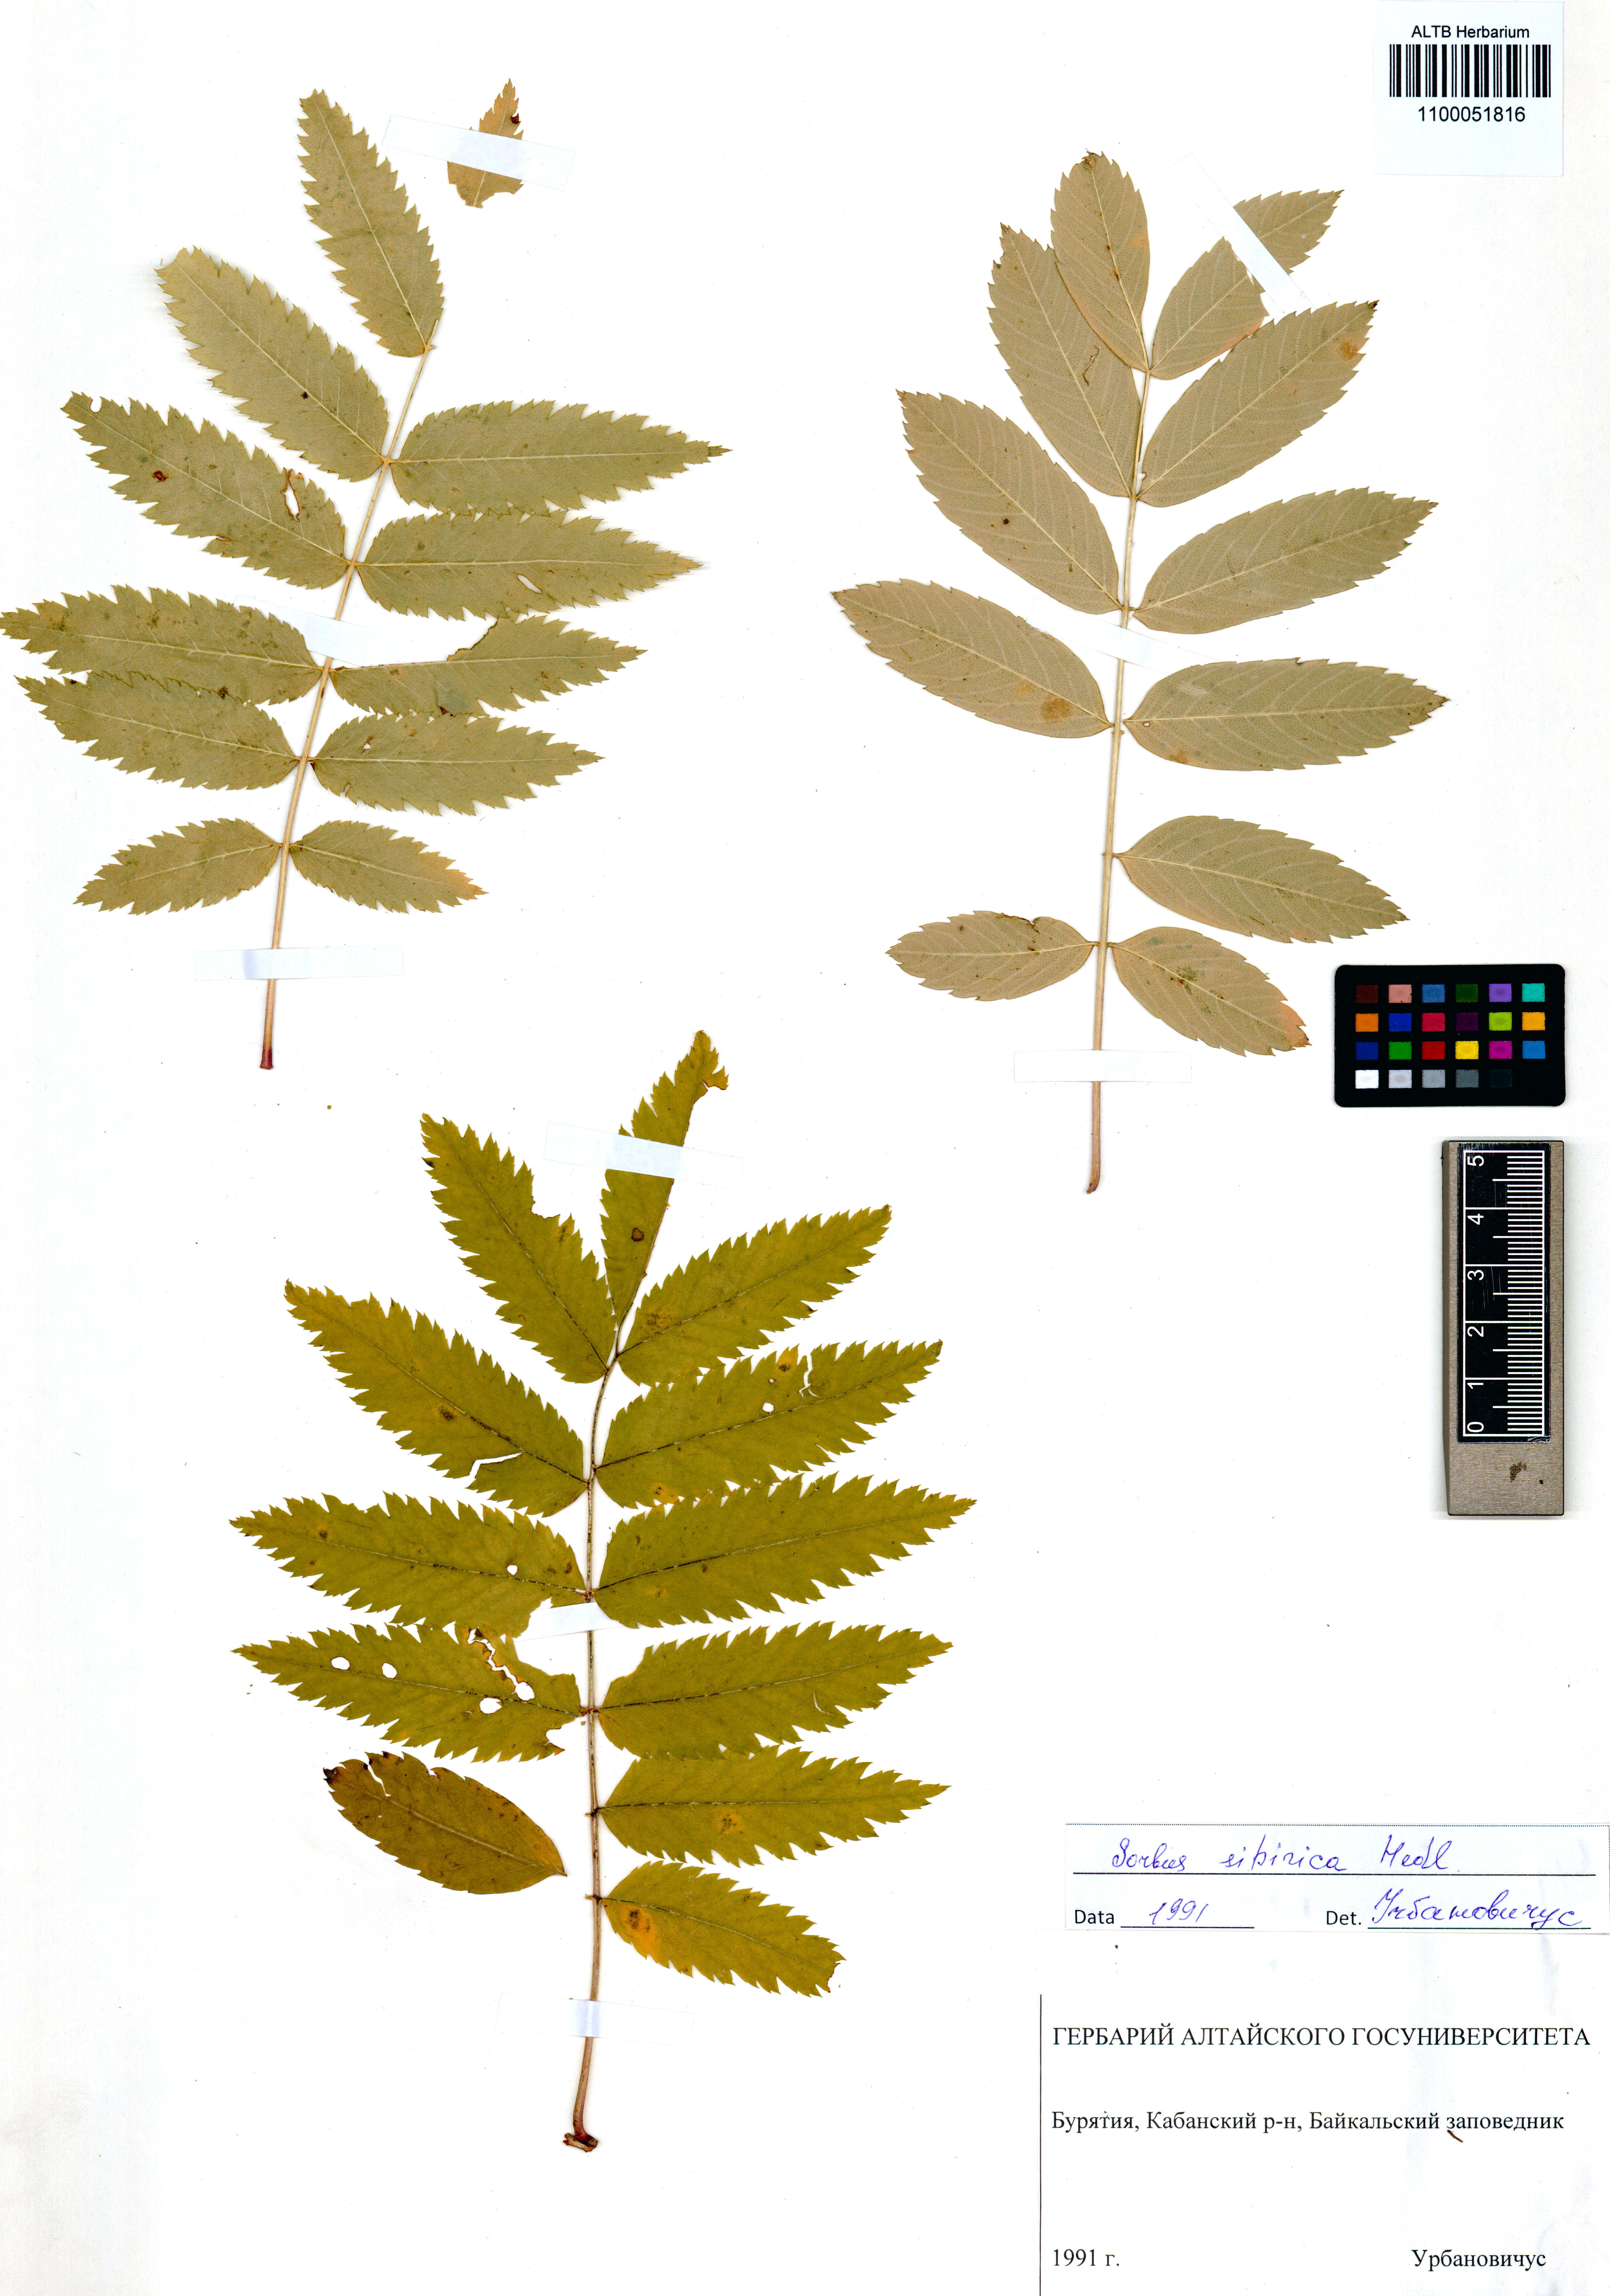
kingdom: Plantae
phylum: Tracheophyta
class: Magnoliopsida
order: Rosales
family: Rosaceae
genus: Sorbus
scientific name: Sorbus aucuparia
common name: Rowan
